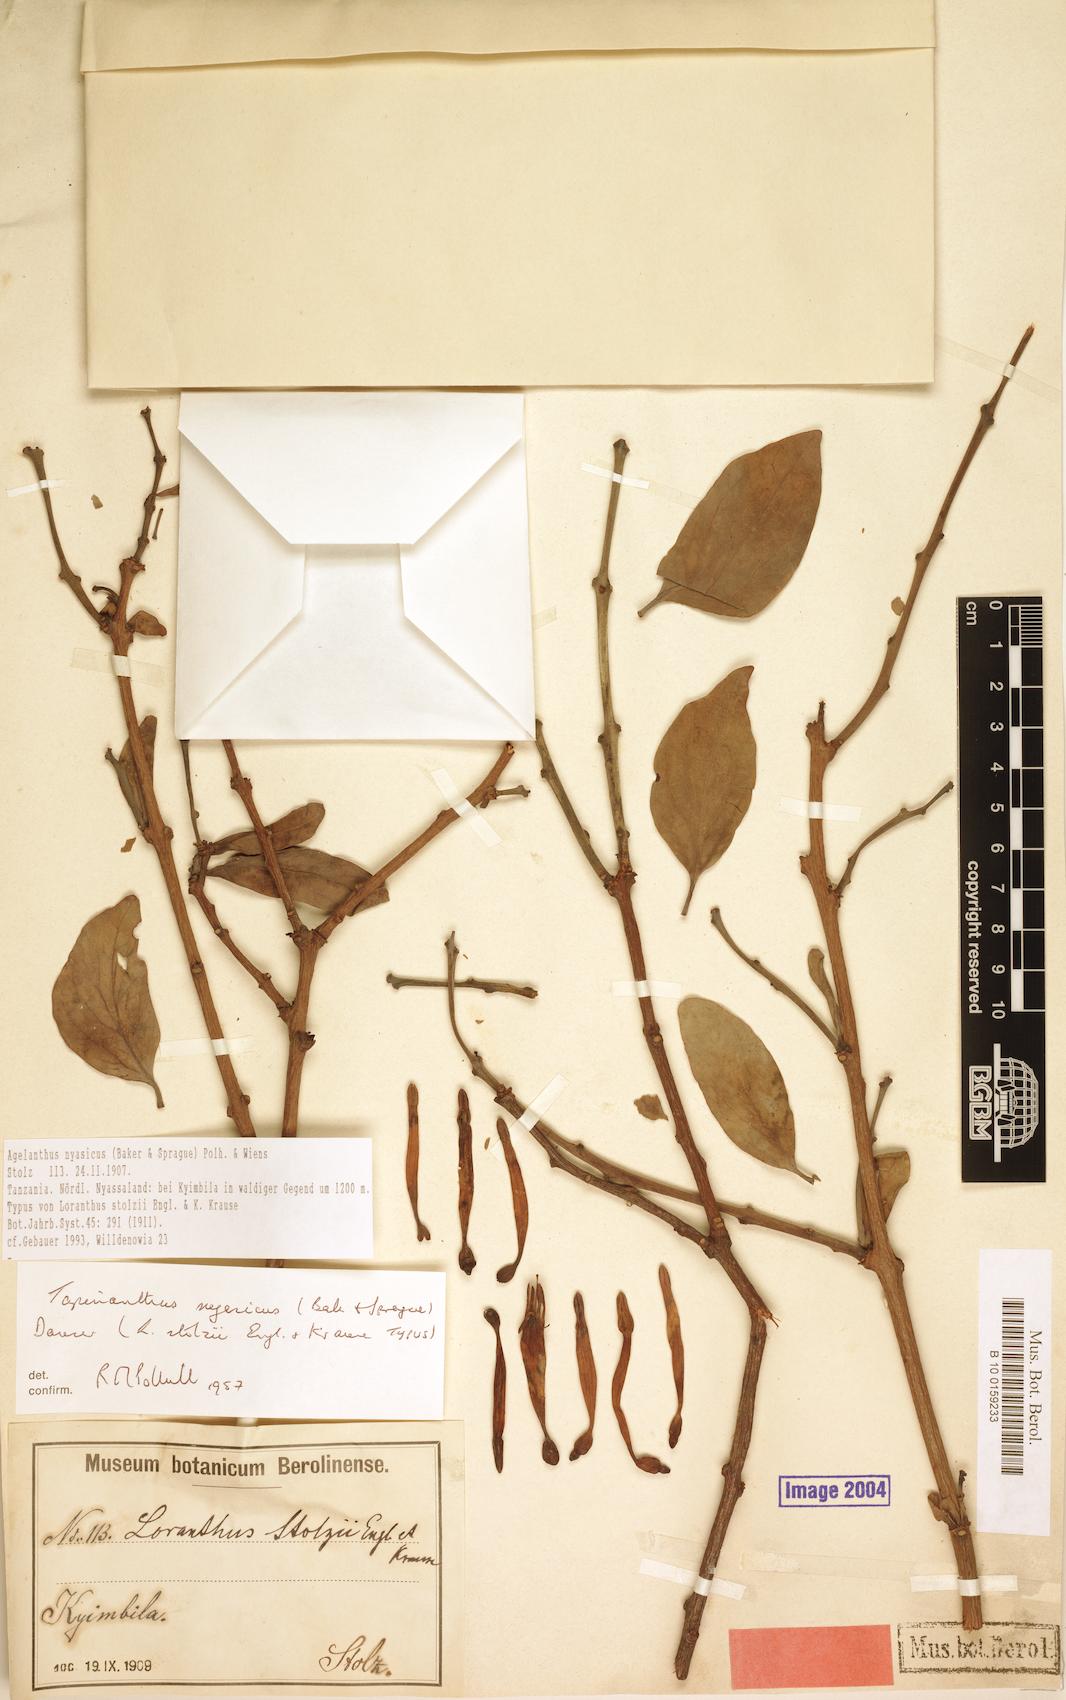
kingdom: Plantae
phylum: Tracheophyta
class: Magnoliopsida
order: Santalales
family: Loranthaceae
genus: Agelanthus
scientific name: Agelanthus nyasicus
